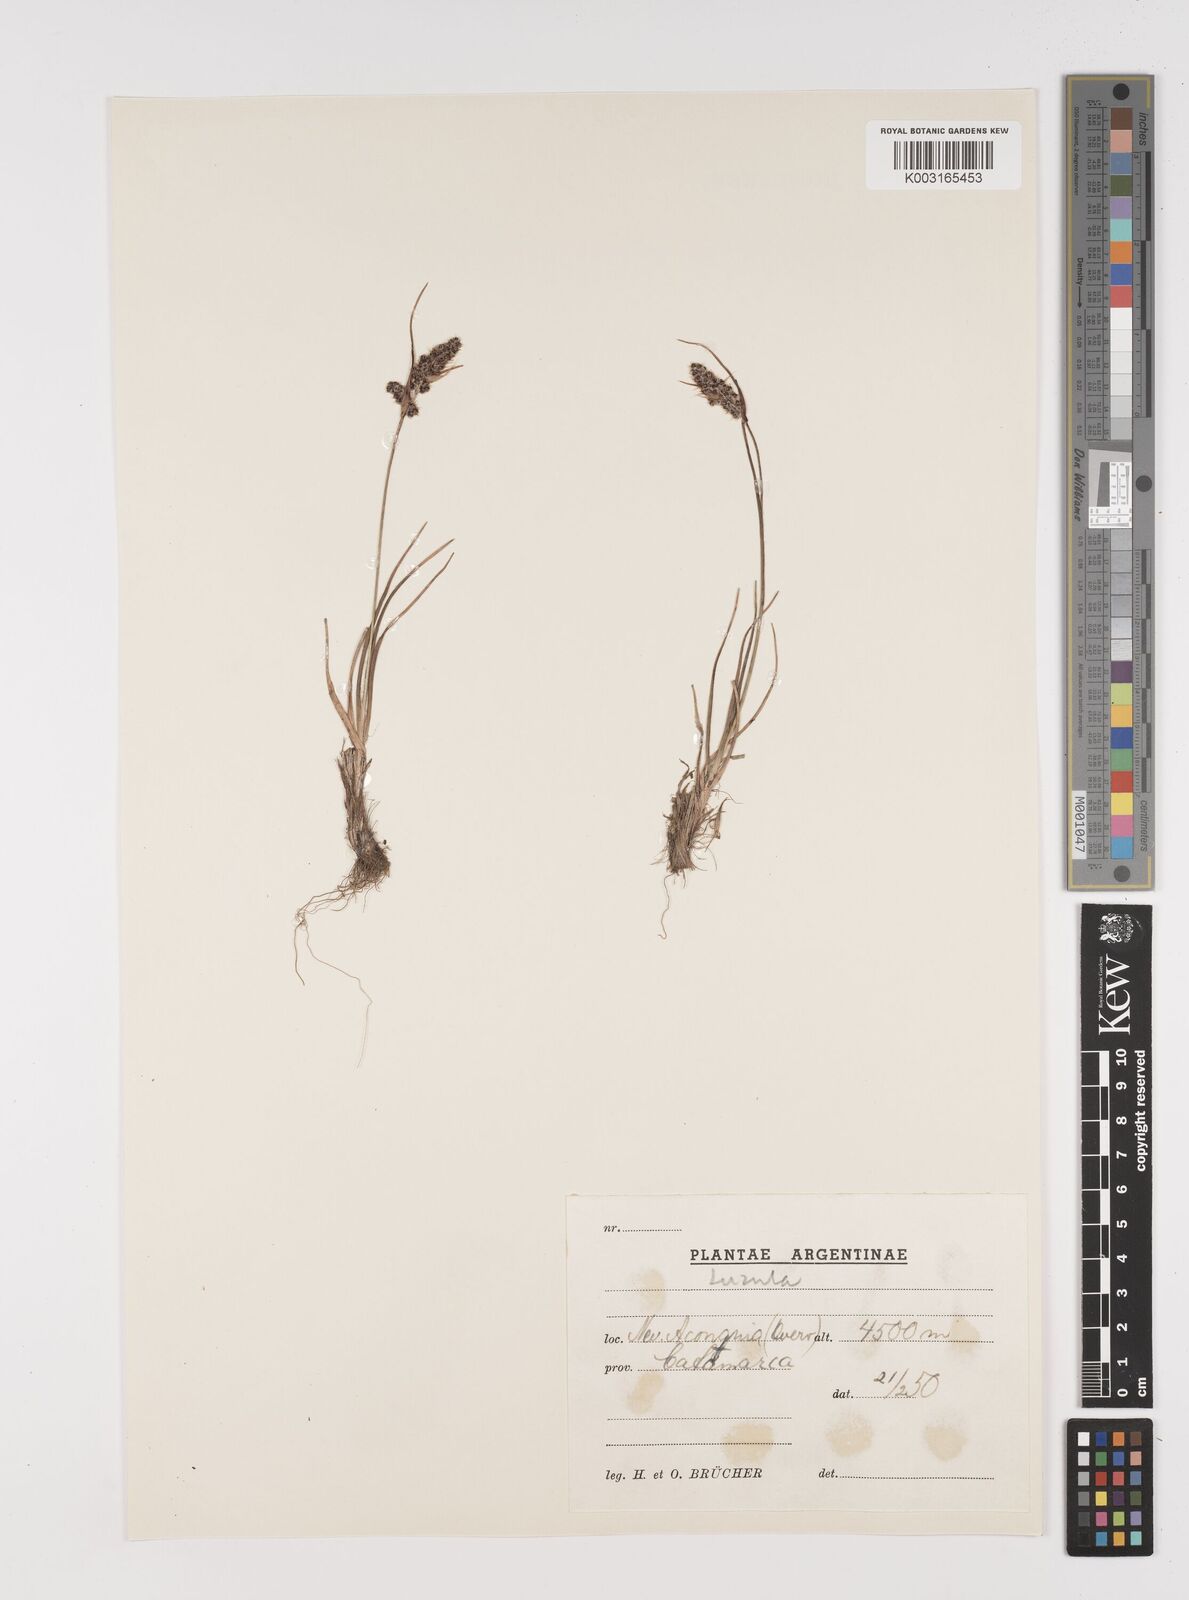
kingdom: Plantae
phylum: Tracheophyta
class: Liliopsida
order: Poales
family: Juncaceae
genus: Luzula
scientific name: Luzula
